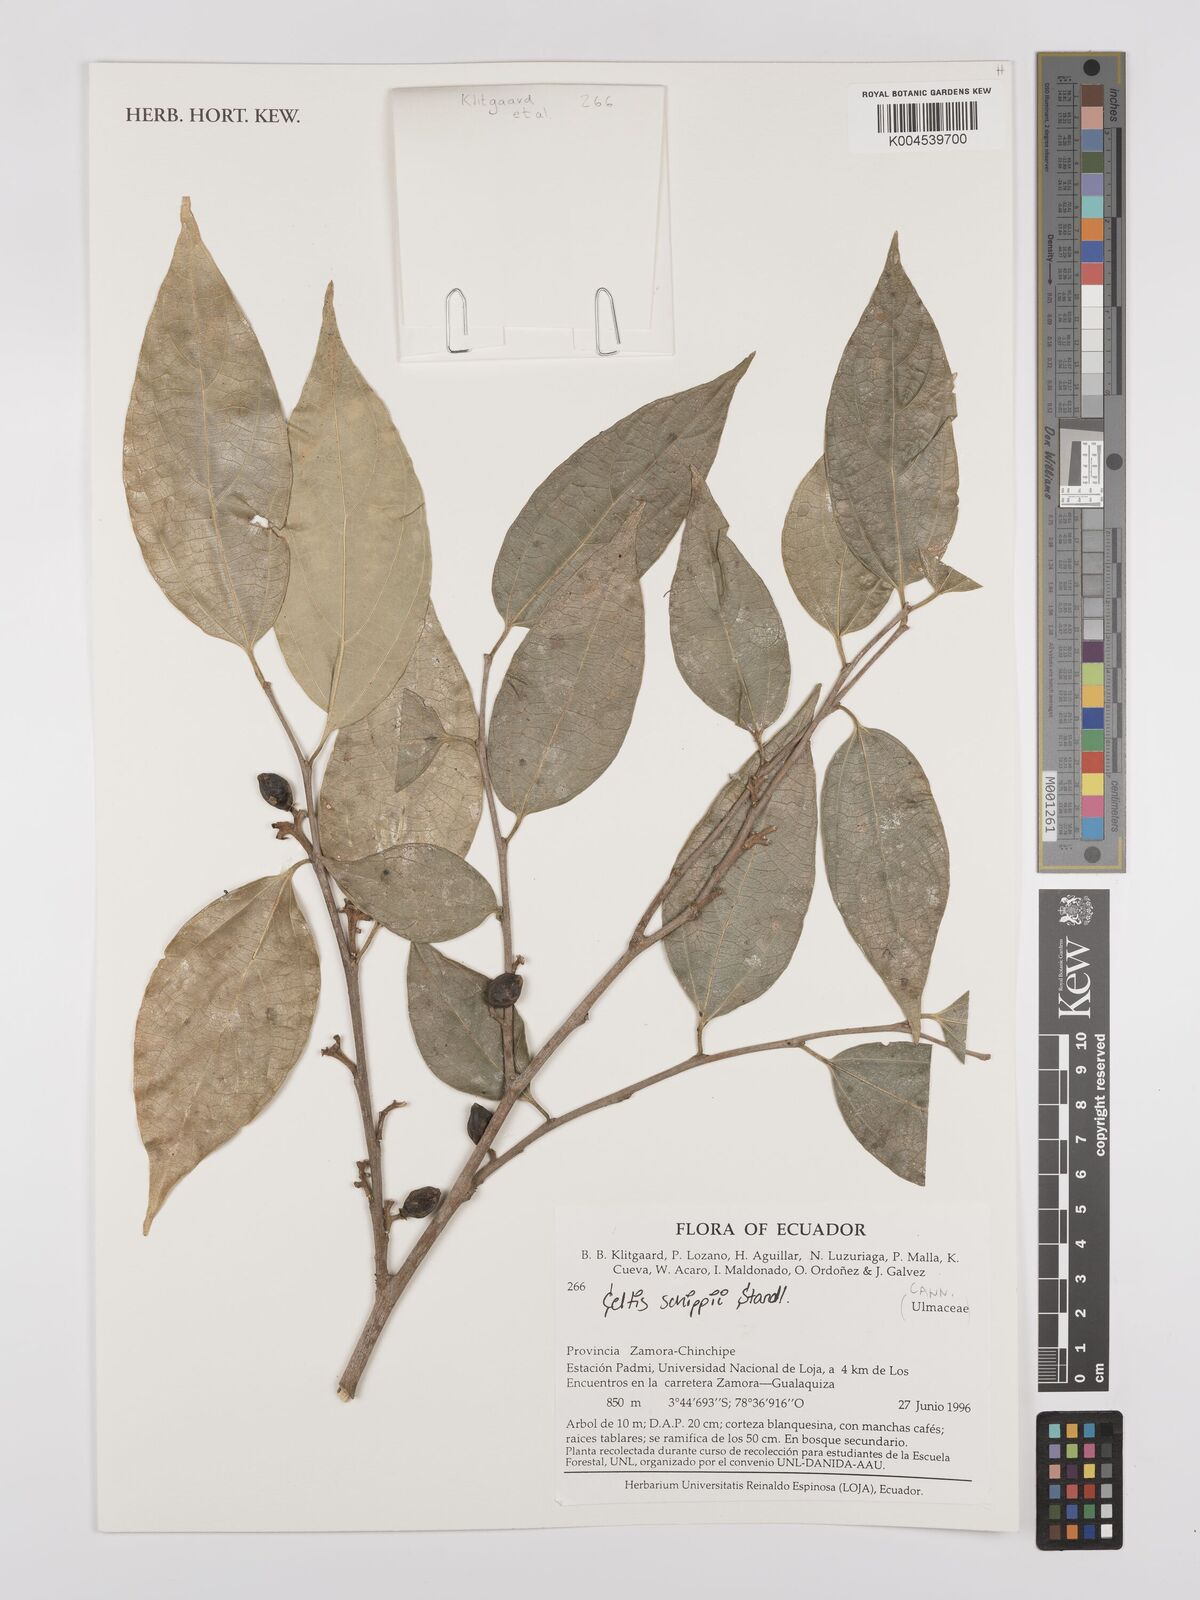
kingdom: Plantae
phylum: Tracheophyta
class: Magnoliopsida
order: Rosales
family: Cannabaceae
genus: Celtis
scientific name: Celtis schippii
